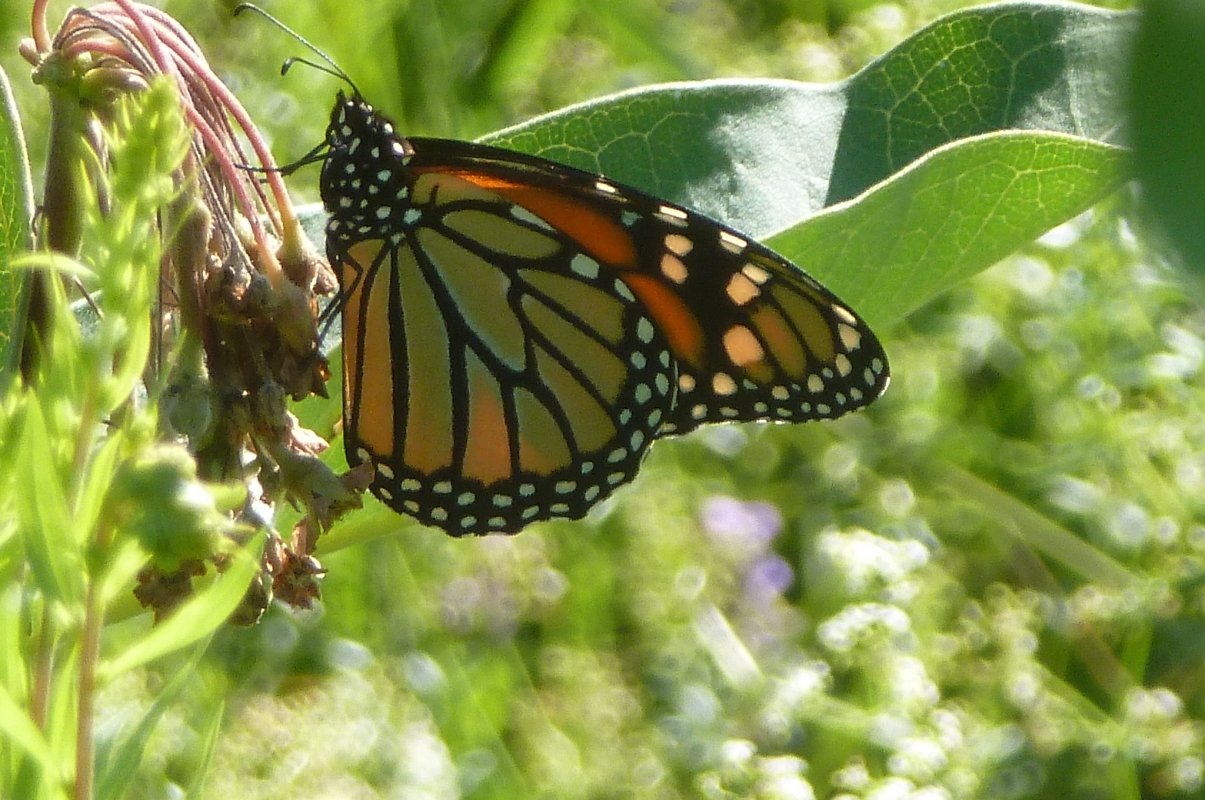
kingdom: Animalia
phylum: Arthropoda
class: Insecta
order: Lepidoptera
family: Nymphalidae
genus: Danaus
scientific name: Danaus plexippus
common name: Monarch
